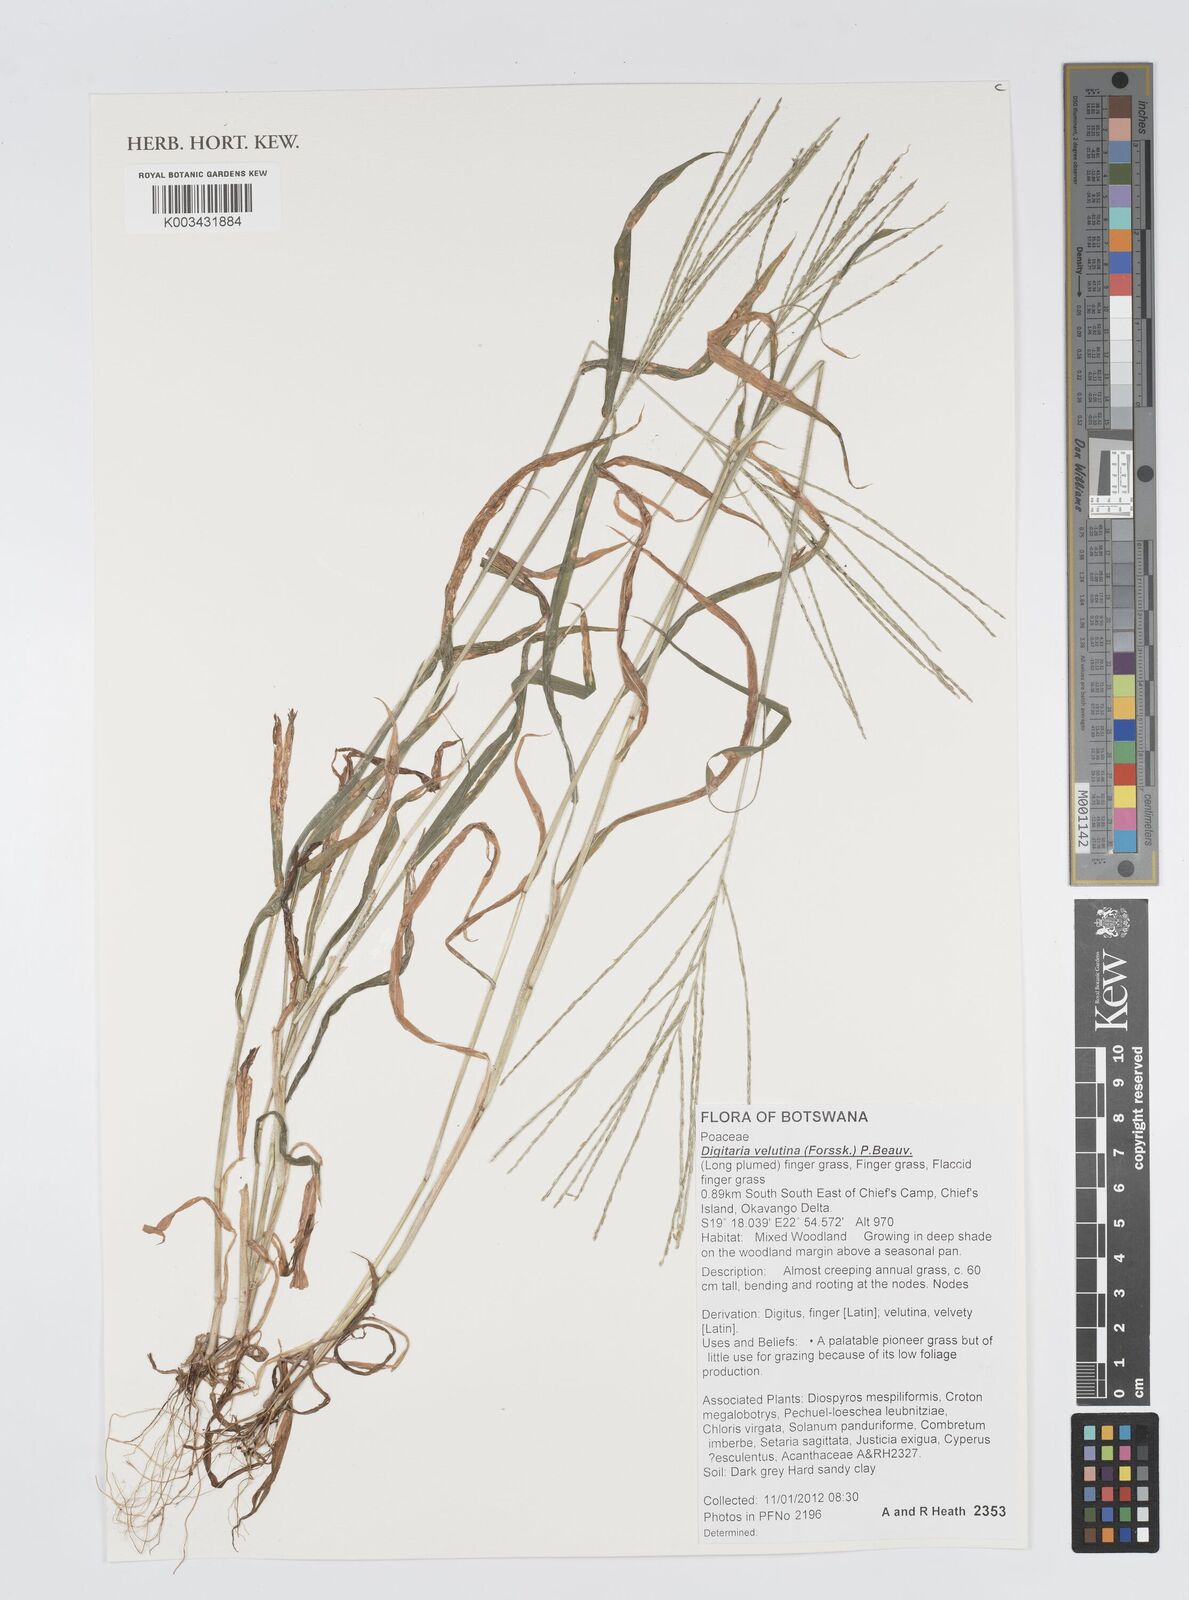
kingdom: Plantae
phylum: Tracheophyta
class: Liliopsida
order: Poales
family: Poaceae
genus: Digitaria
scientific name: Digitaria velutina
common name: Long-plume finger grass
